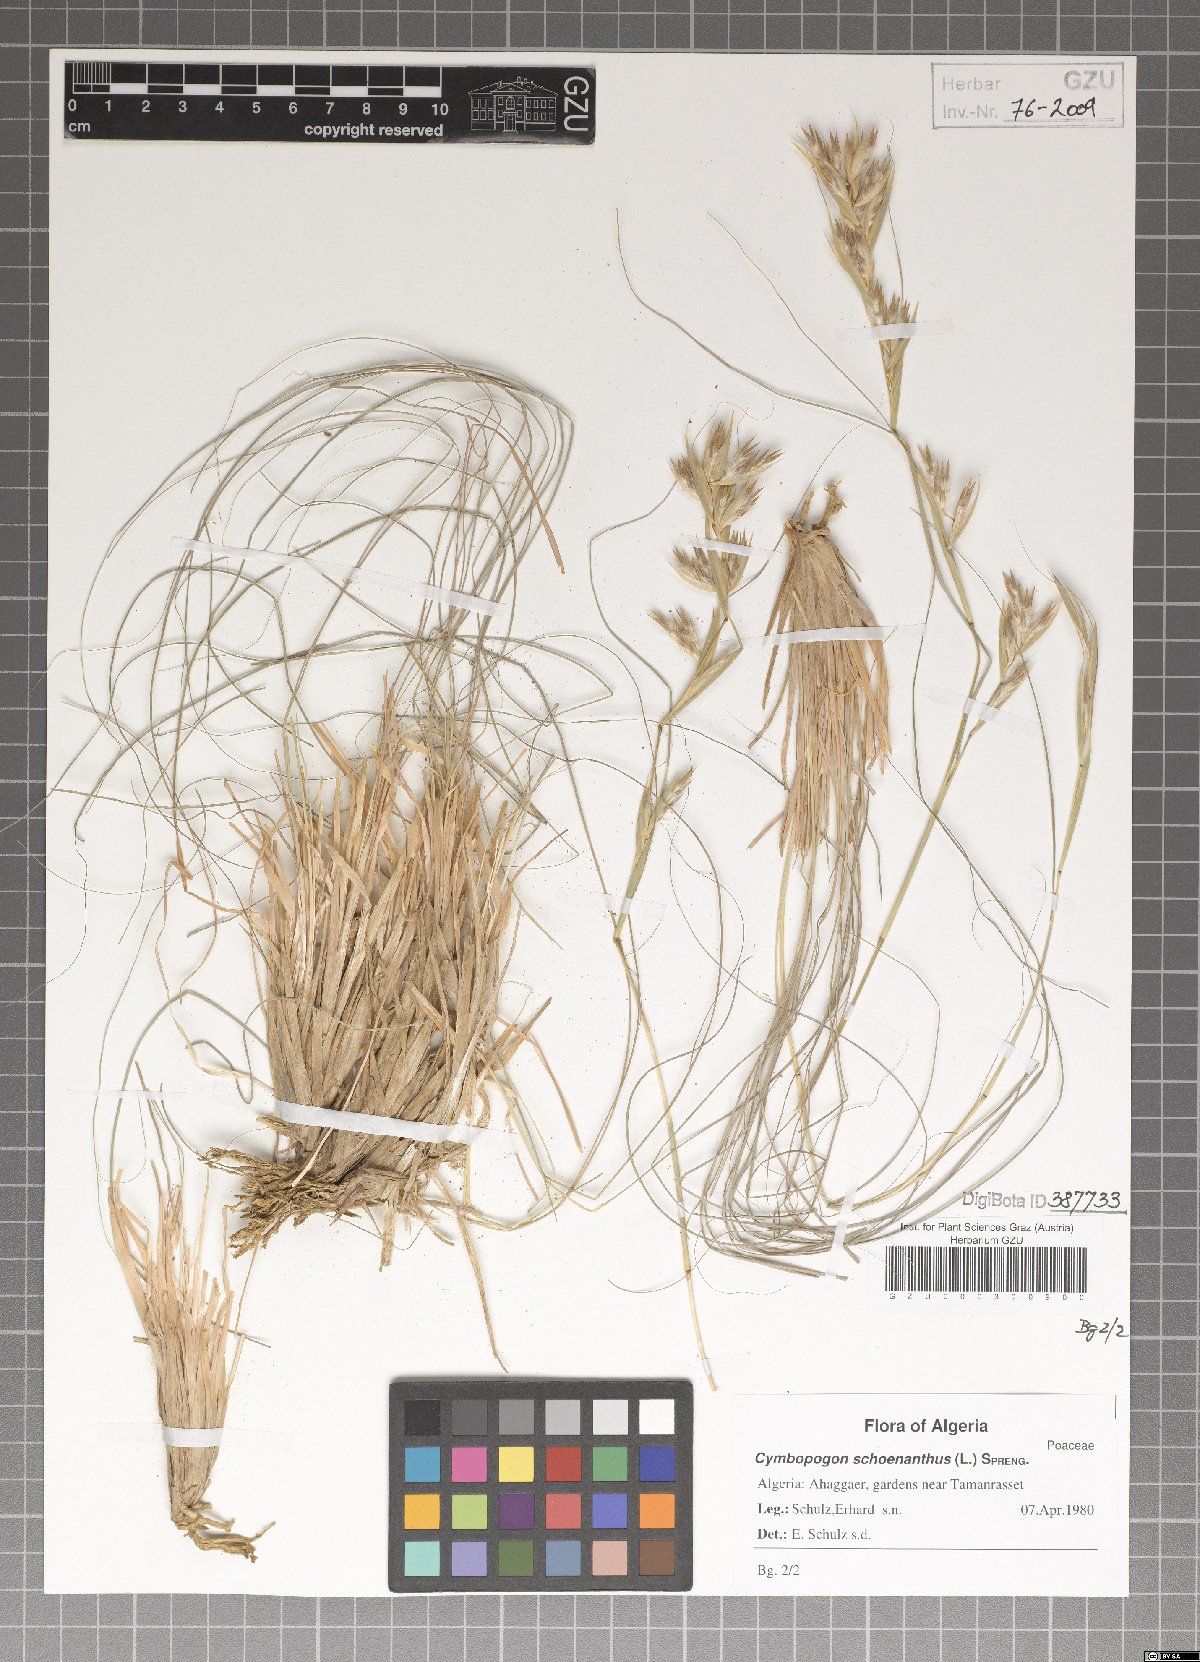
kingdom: Plantae
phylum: Tracheophyta
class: Liliopsida
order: Poales
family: Poaceae
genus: Cymbopogon
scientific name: Cymbopogon schoenanthus
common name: Geranium grass
